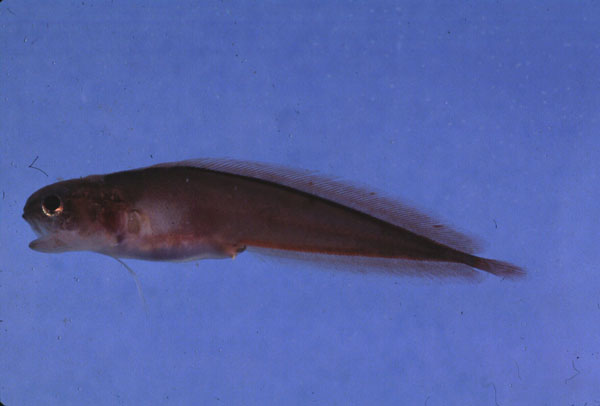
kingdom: Animalia
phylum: Chordata
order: Ophidiiformes
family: Bythitidae
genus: Brosmophyciops
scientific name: Brosmophyciops pautzkei
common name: Slimy cuskeel
